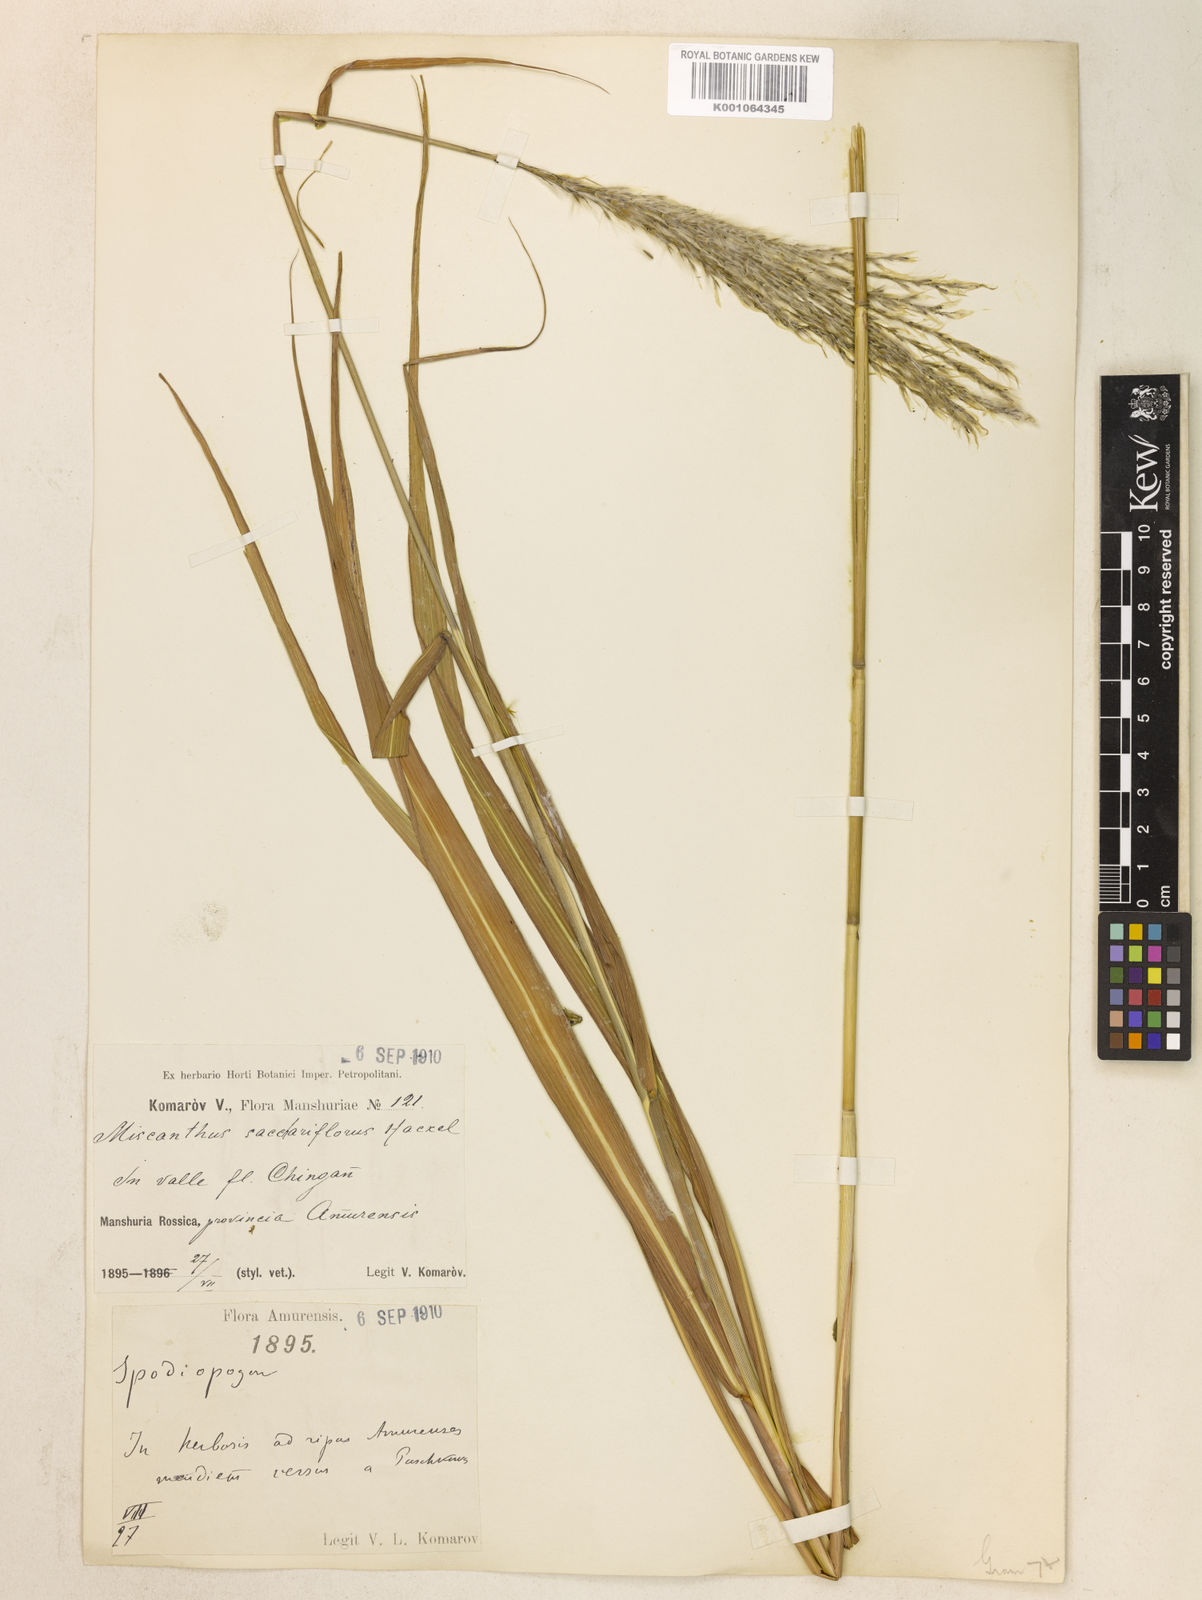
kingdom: Plantae
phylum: Tracheophyta
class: Liliopsida
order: Poales
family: Poaceae
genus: Miscanthus
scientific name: Miscanthus
